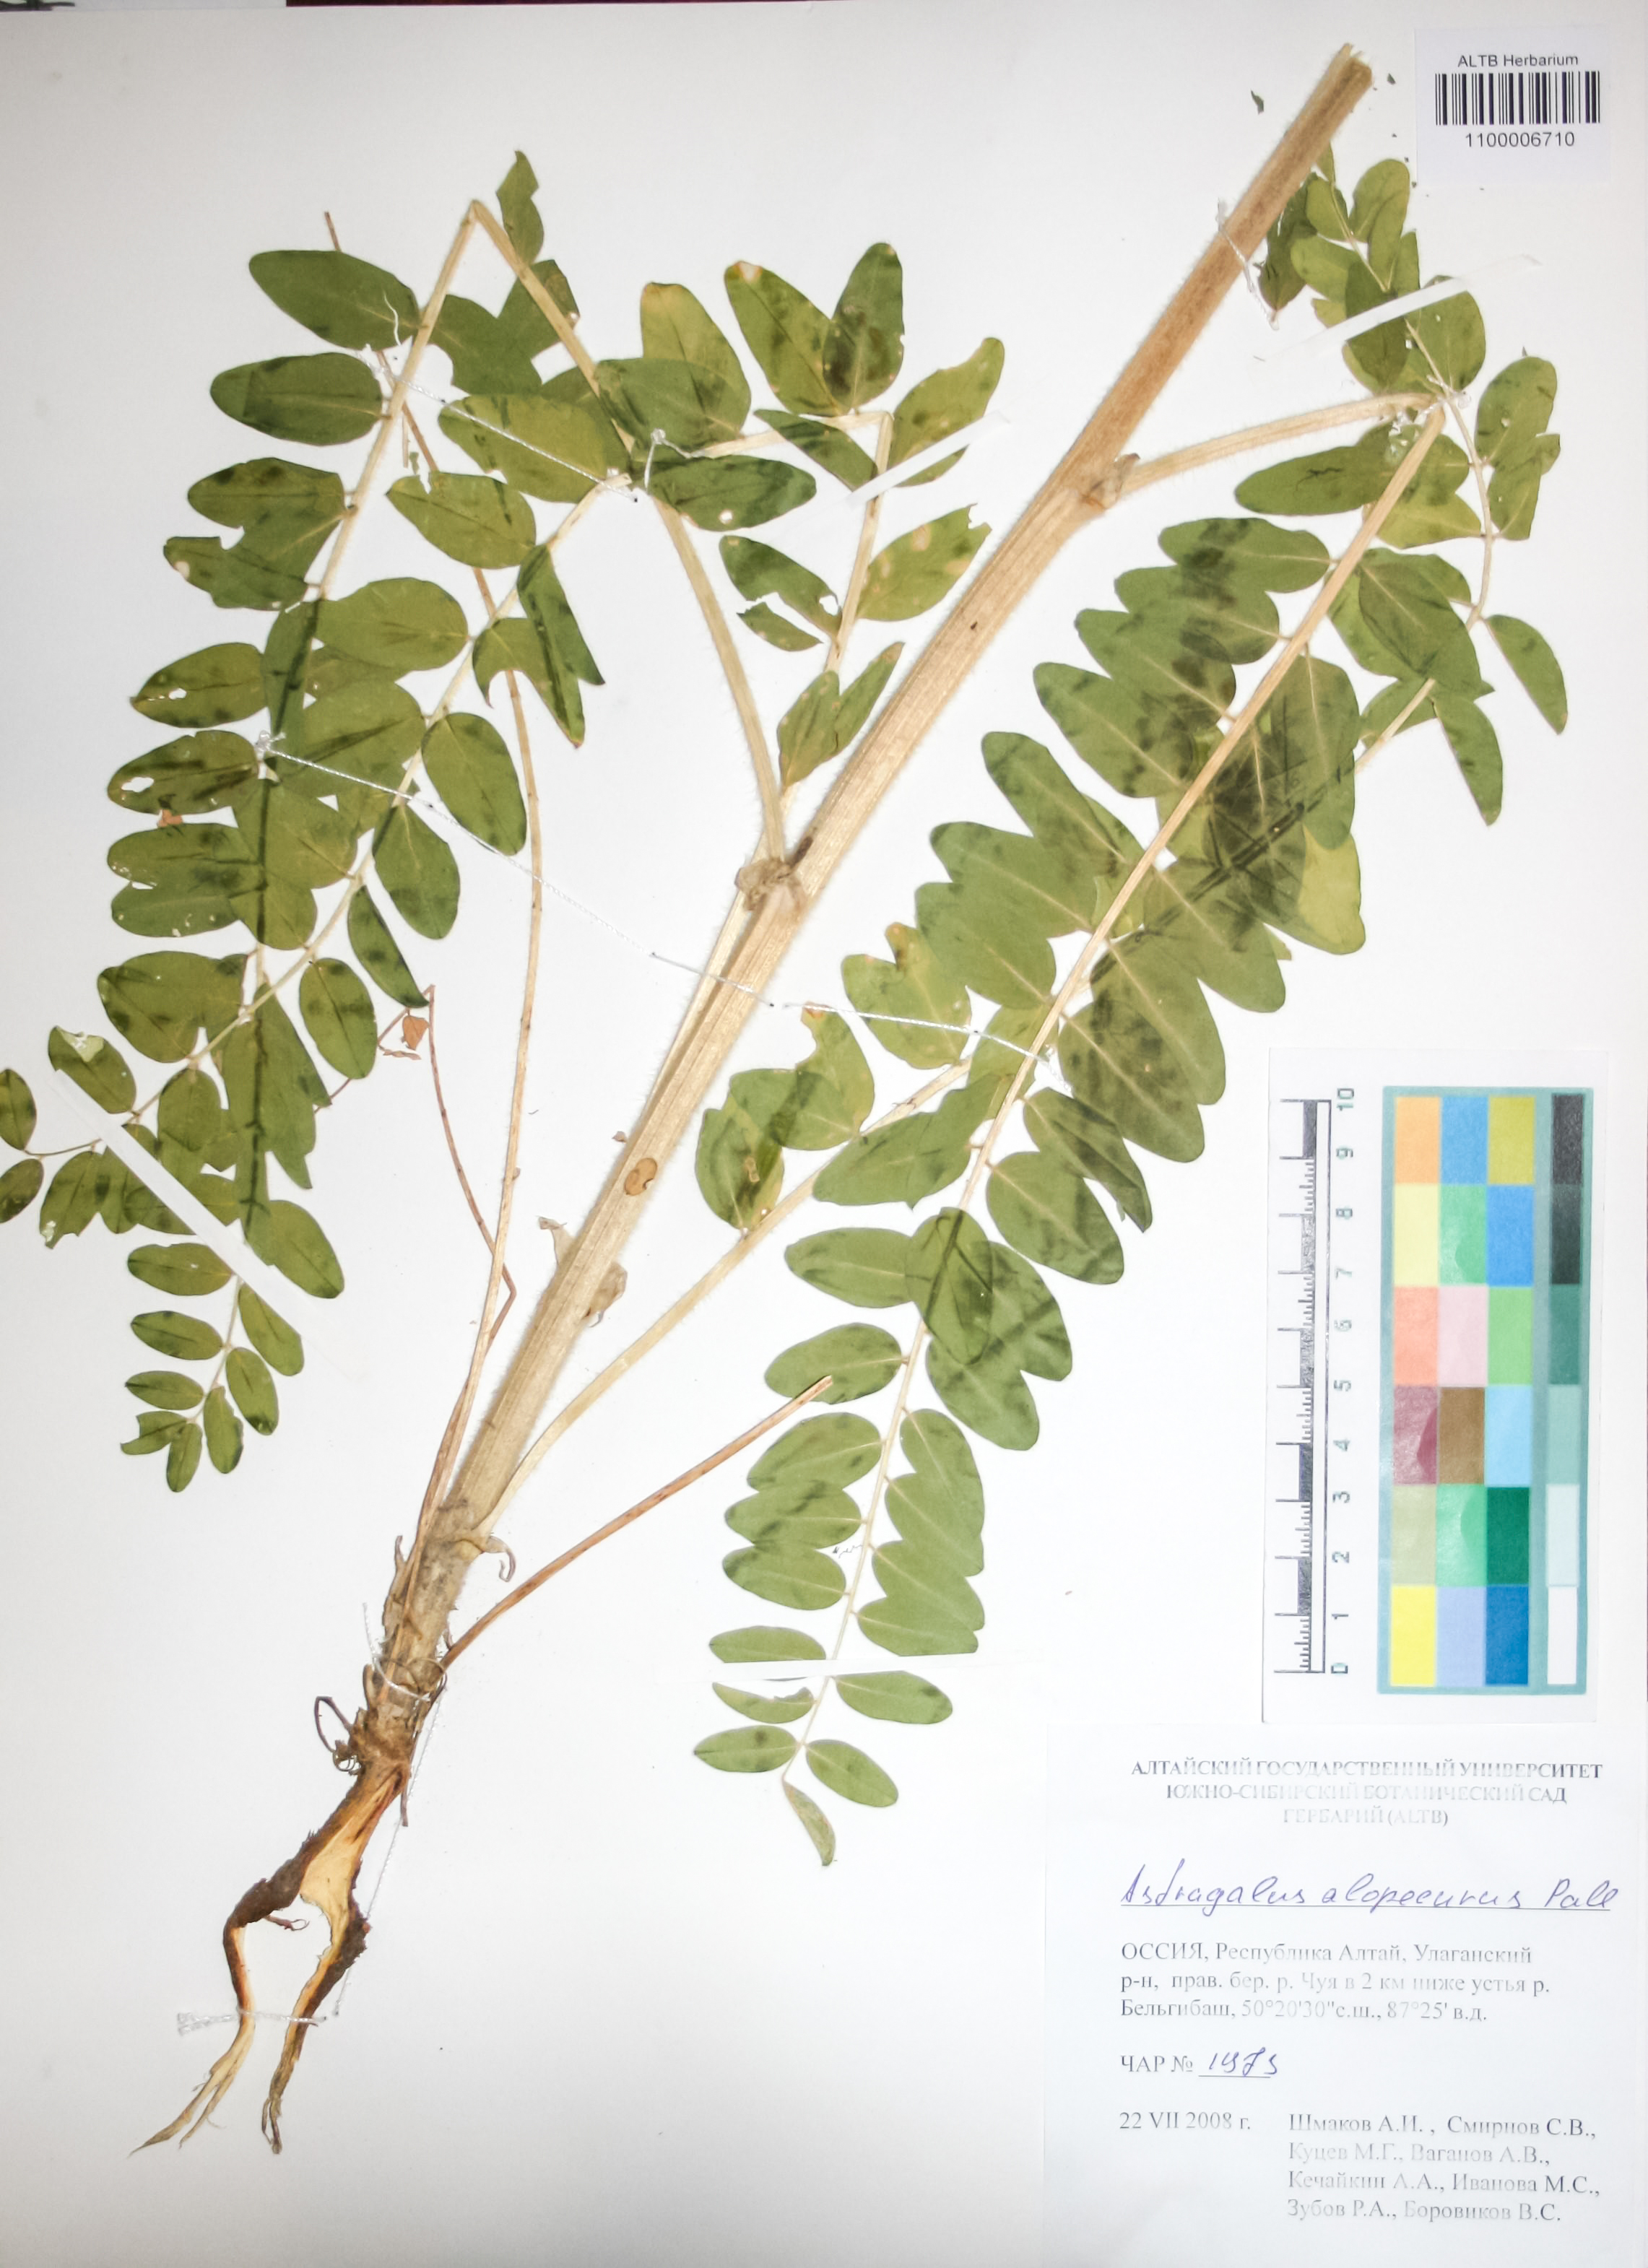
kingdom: Plantae
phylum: Tracheophyta
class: Magnoliopsida
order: Fabales
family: Fabaceae
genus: Astragalus
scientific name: Astragalus alopecurus
